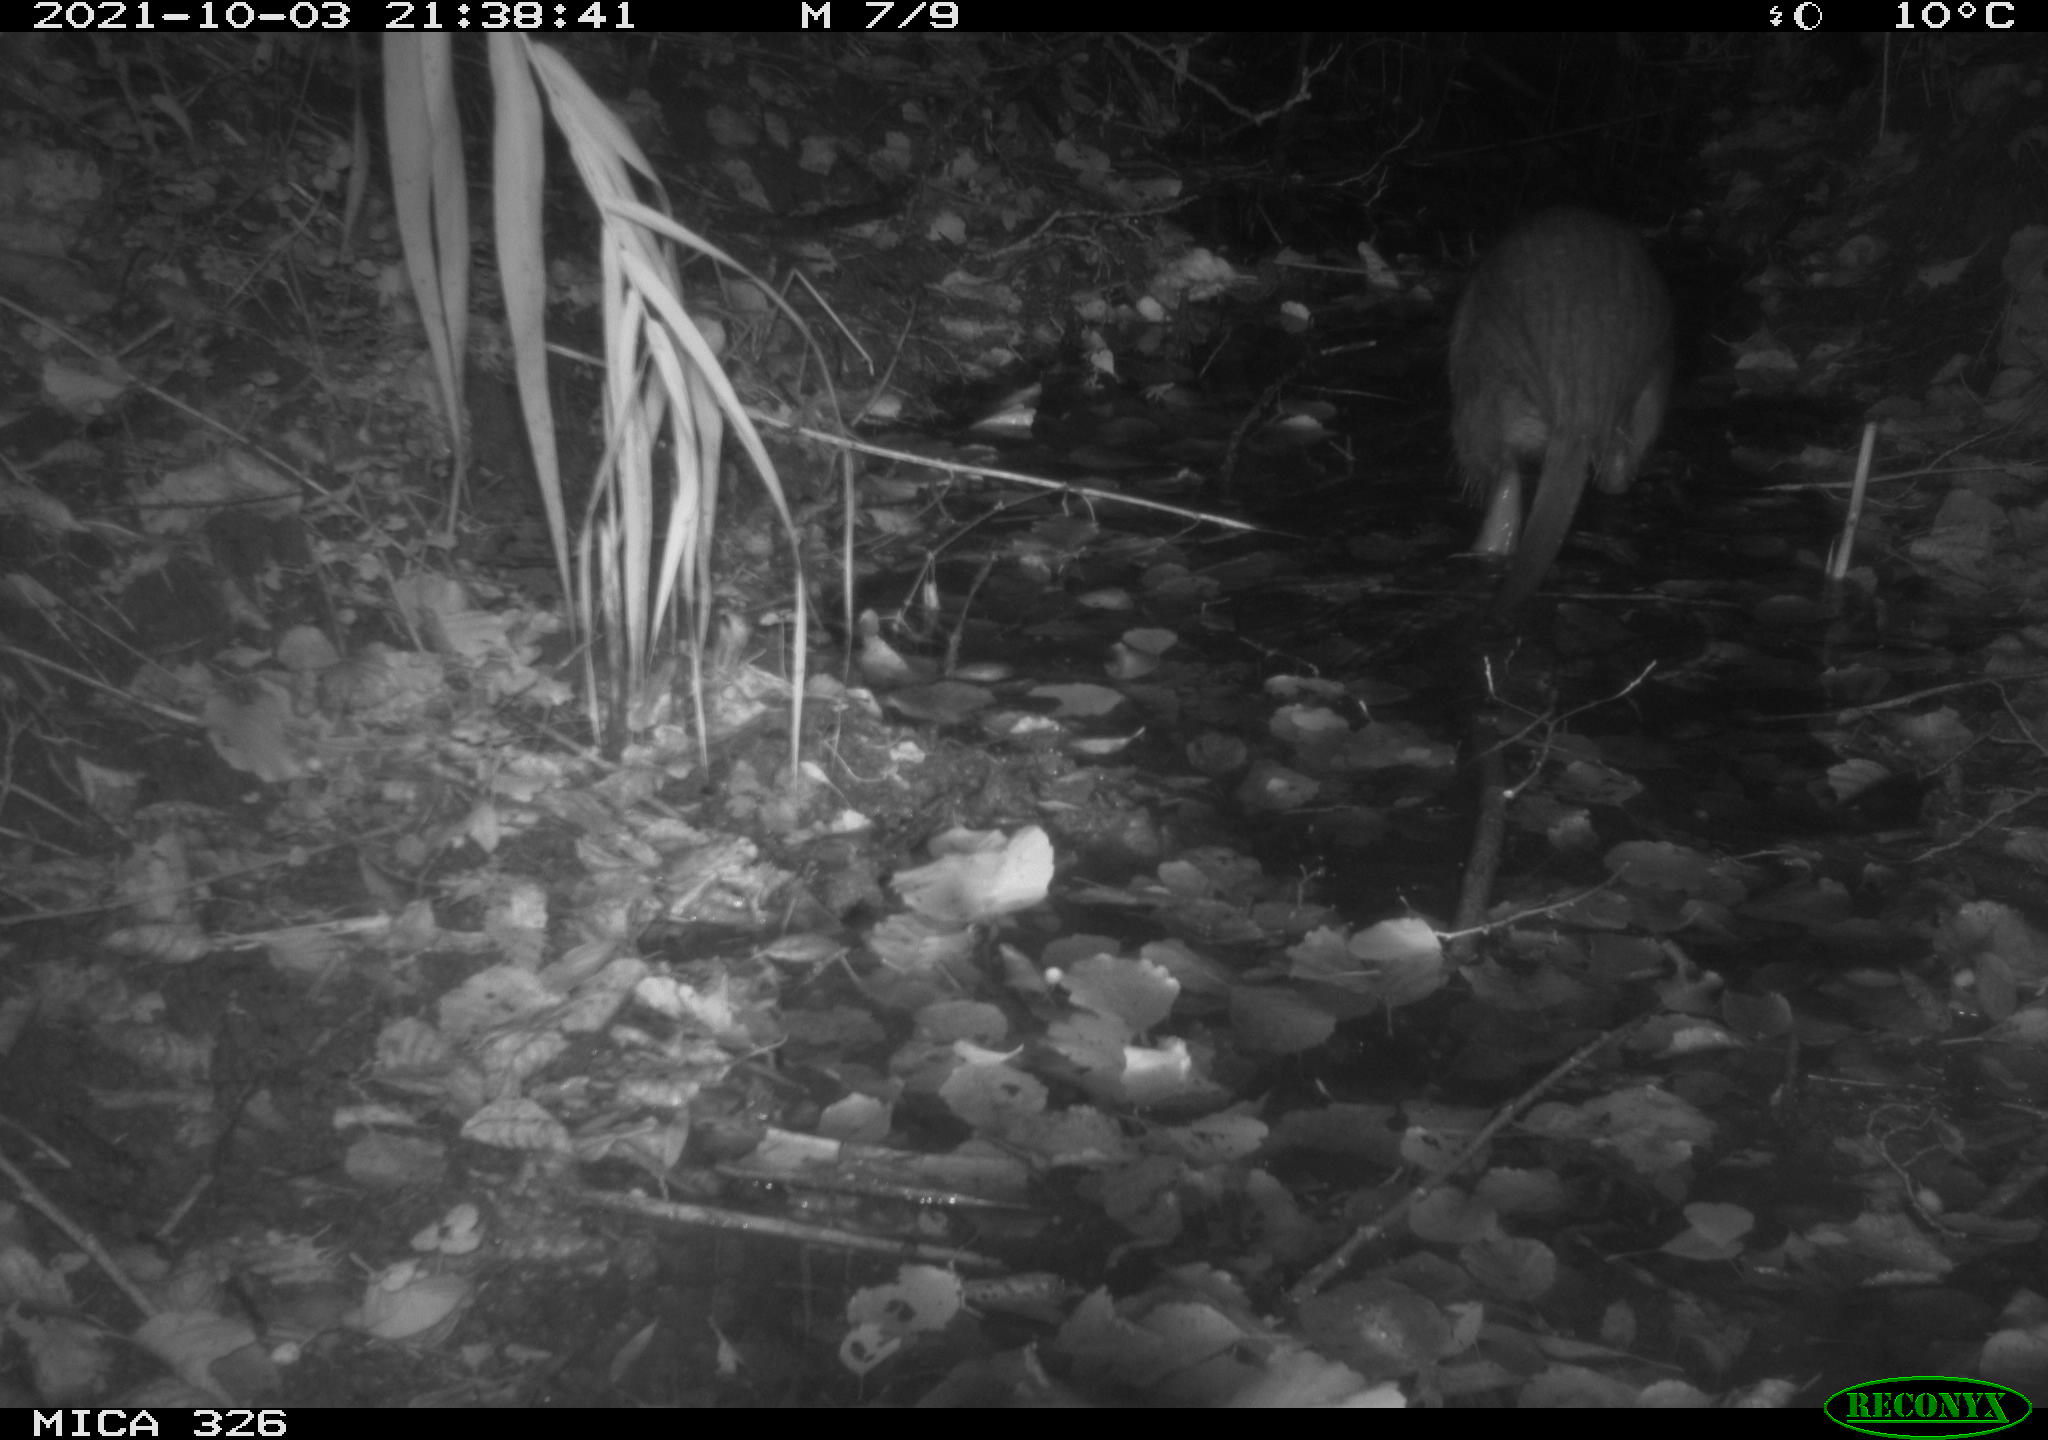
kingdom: Animalia
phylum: Chordata
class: Mammalia
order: Rodentia
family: Myocastoridae
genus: Myocastor
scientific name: Myocastor coypus
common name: Coypu
